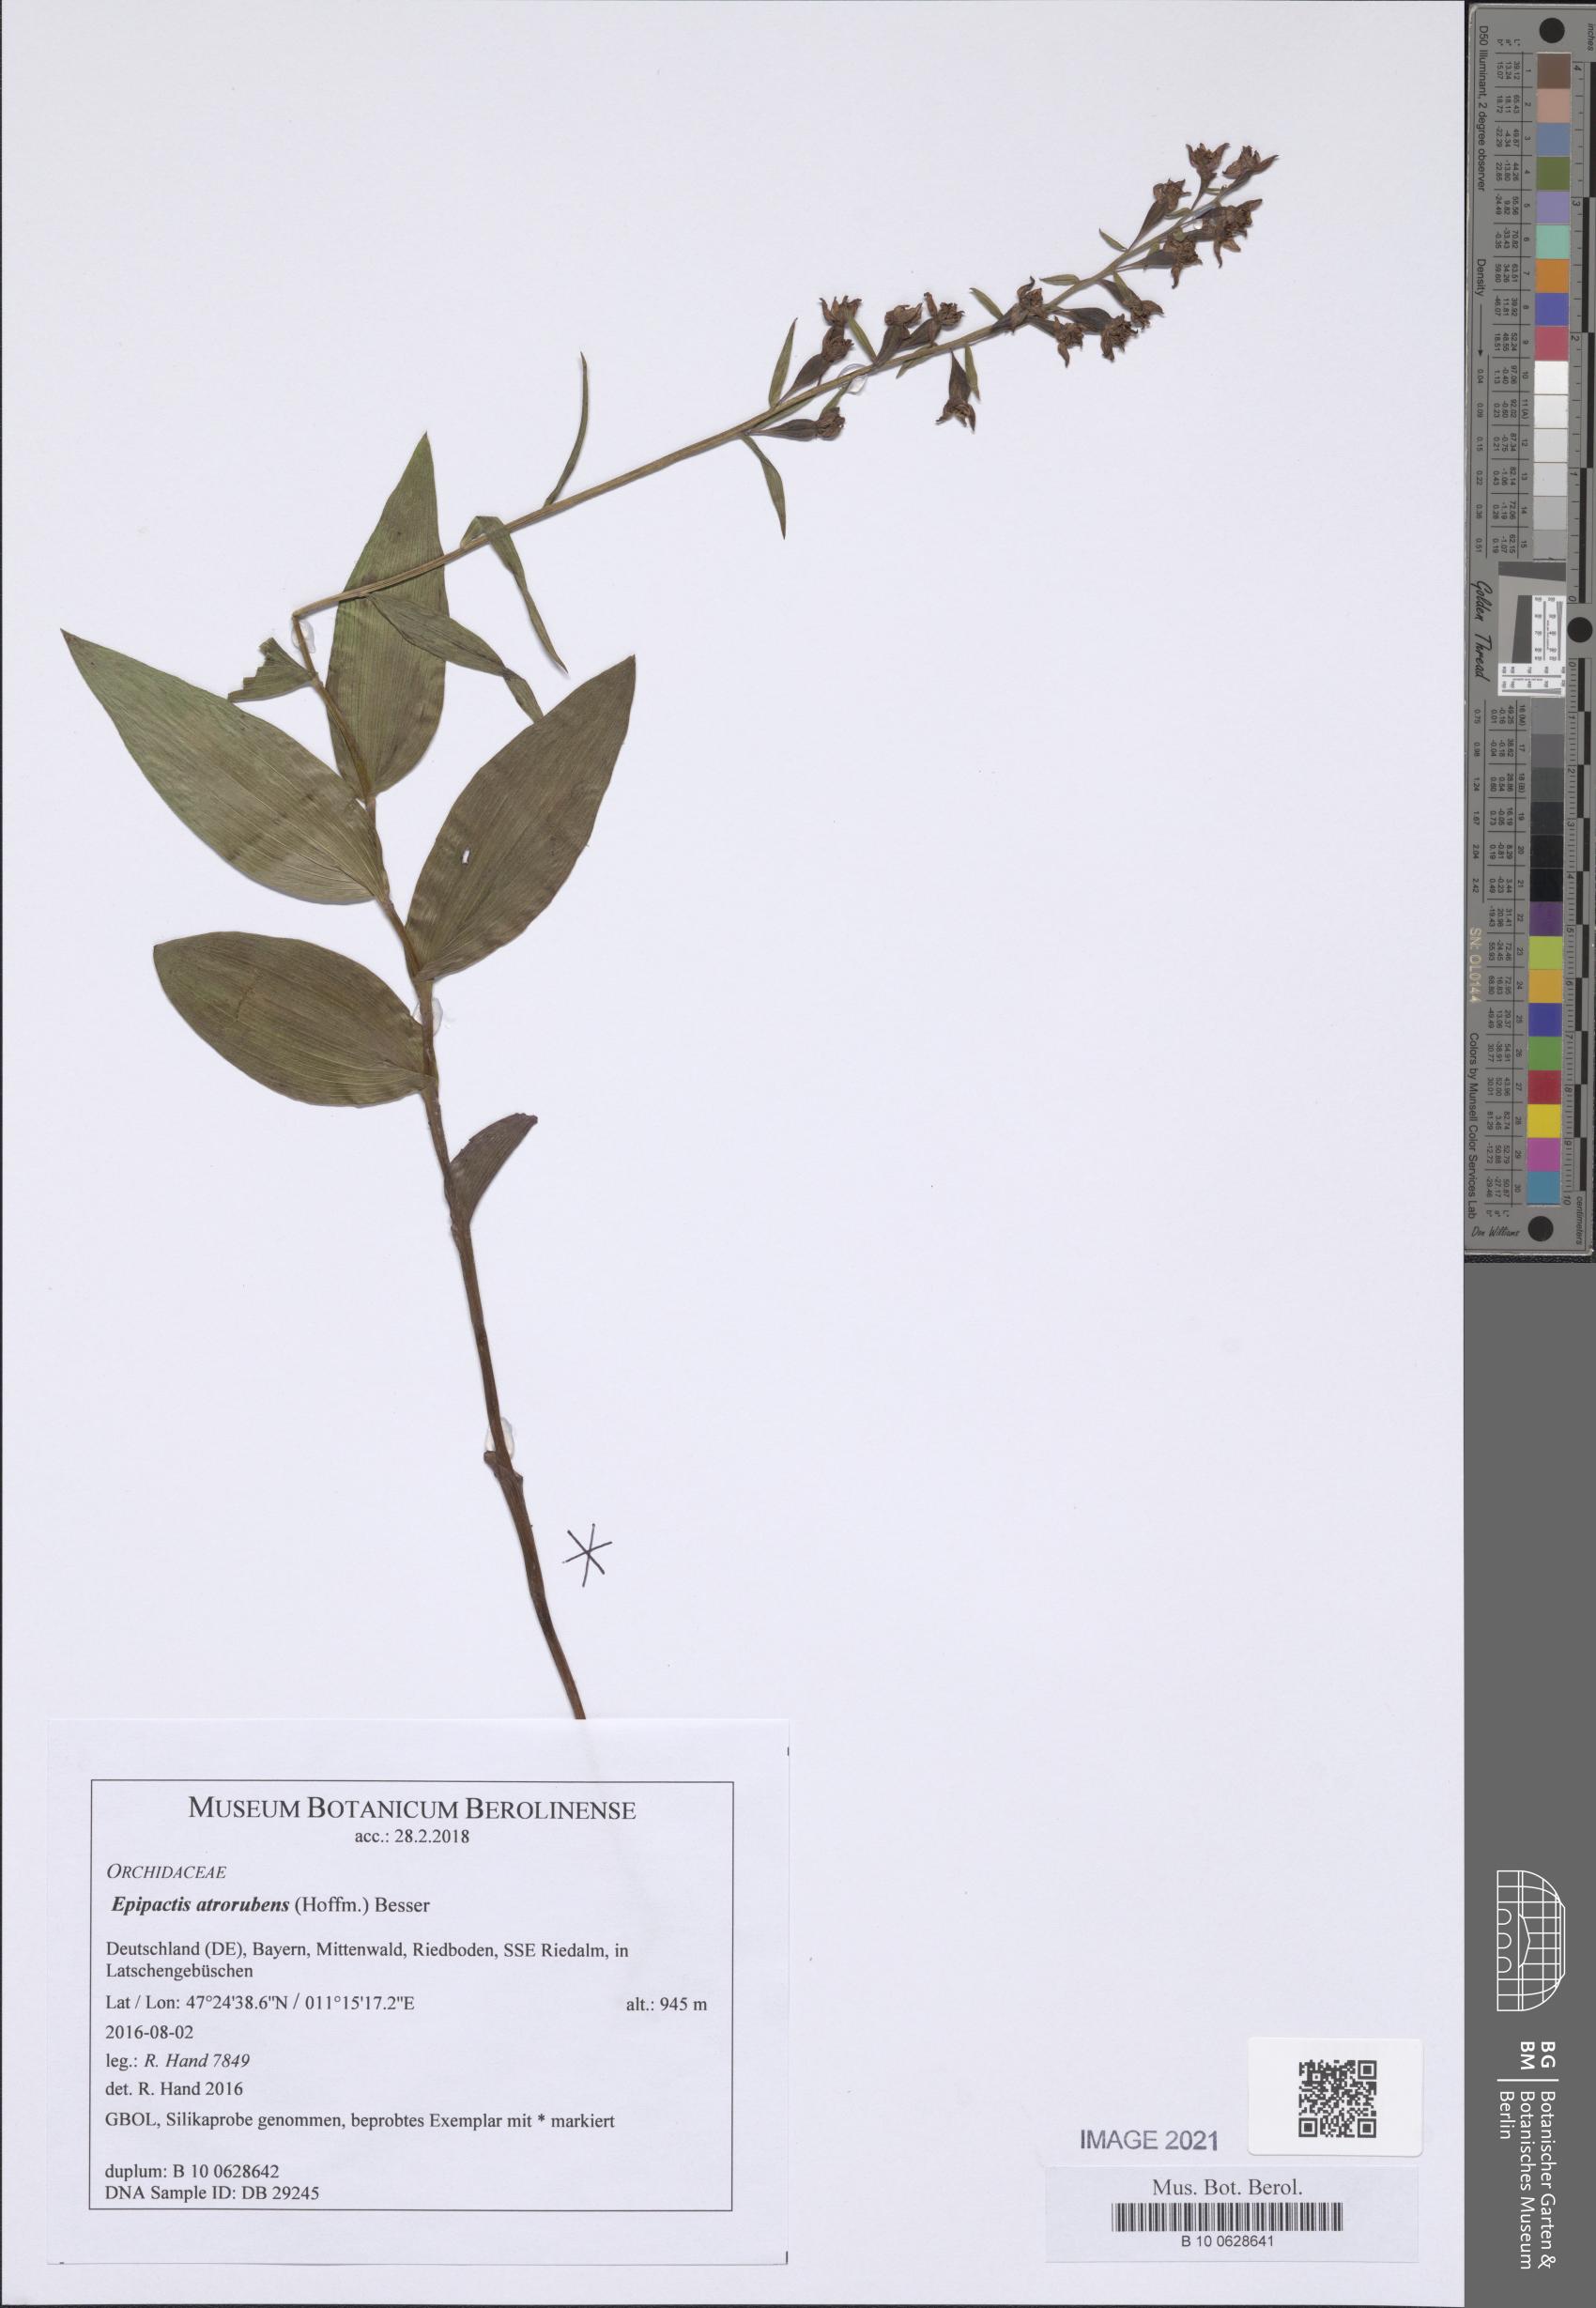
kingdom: Plantae
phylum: Tracheophyta
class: Liliopsida
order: Asparagales
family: Orchidaceae
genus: Epipactis
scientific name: Epipactis atrorubens
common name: Dark-red helleborine
